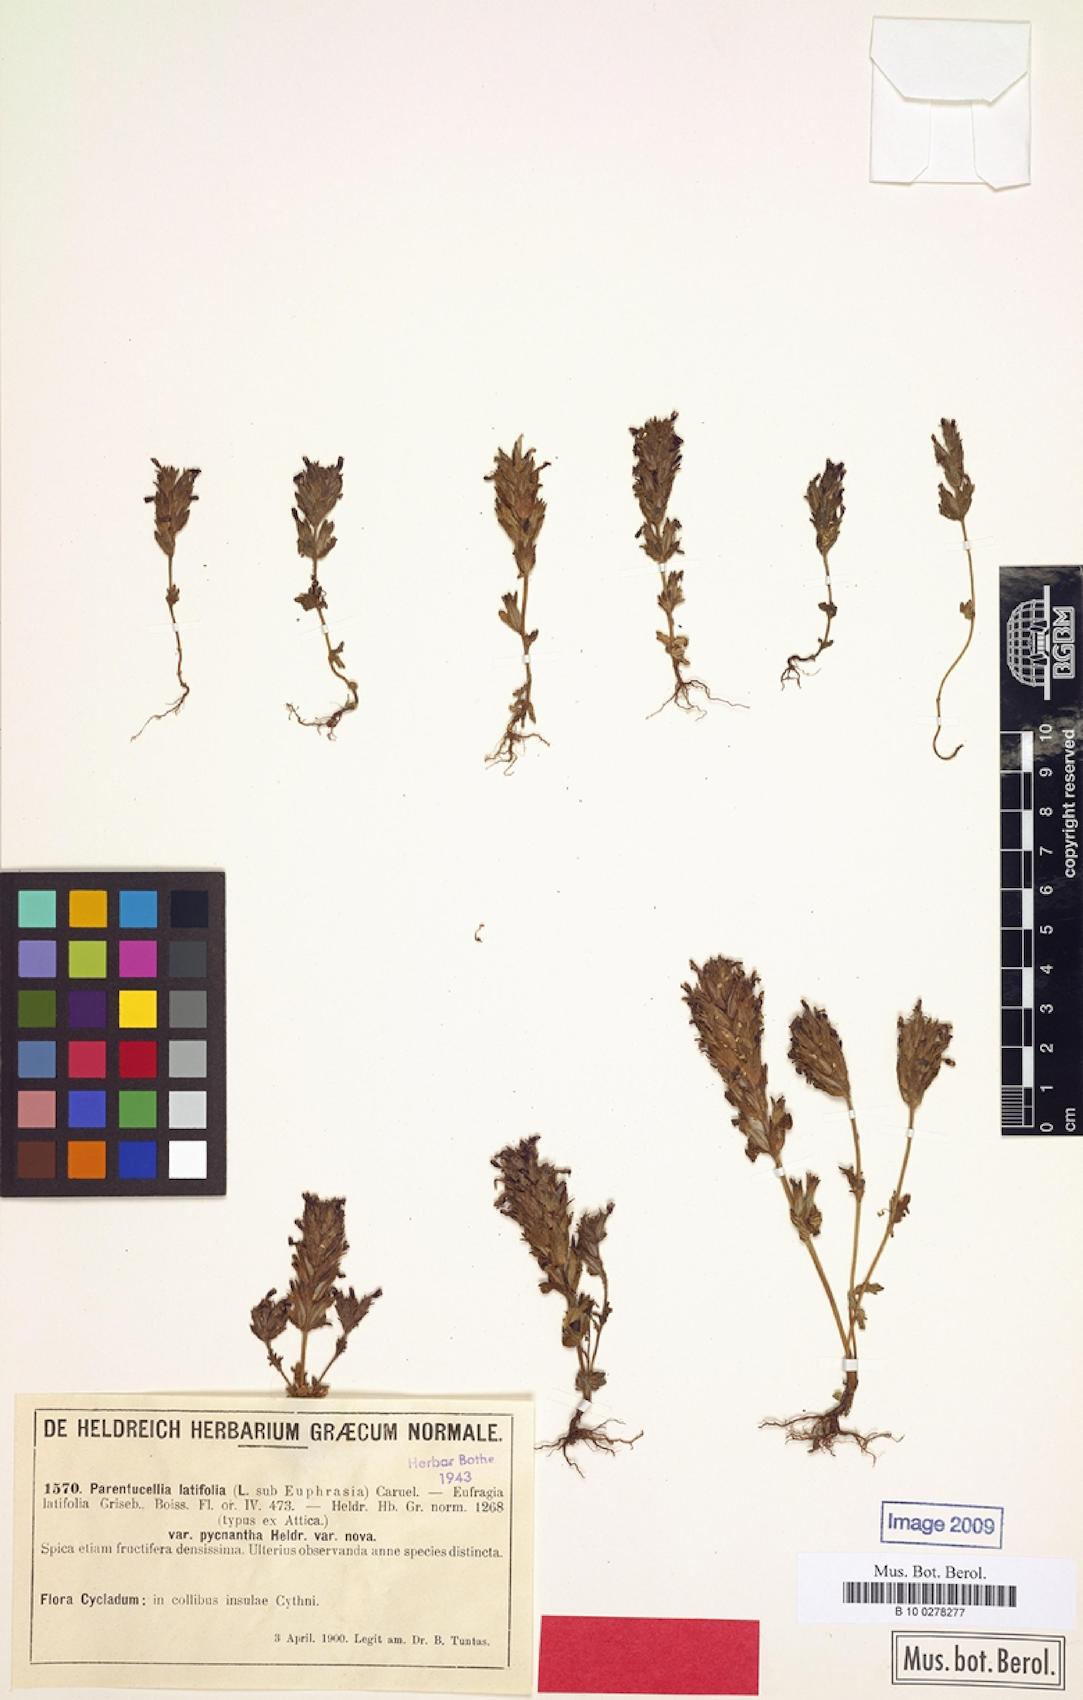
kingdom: Plantae
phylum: Tracheophyta
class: Magnoliopsida
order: Lamiales
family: Orobanchaceae
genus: Parentucellia
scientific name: Parentucellia latifolia
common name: Broadleaf glandweed
